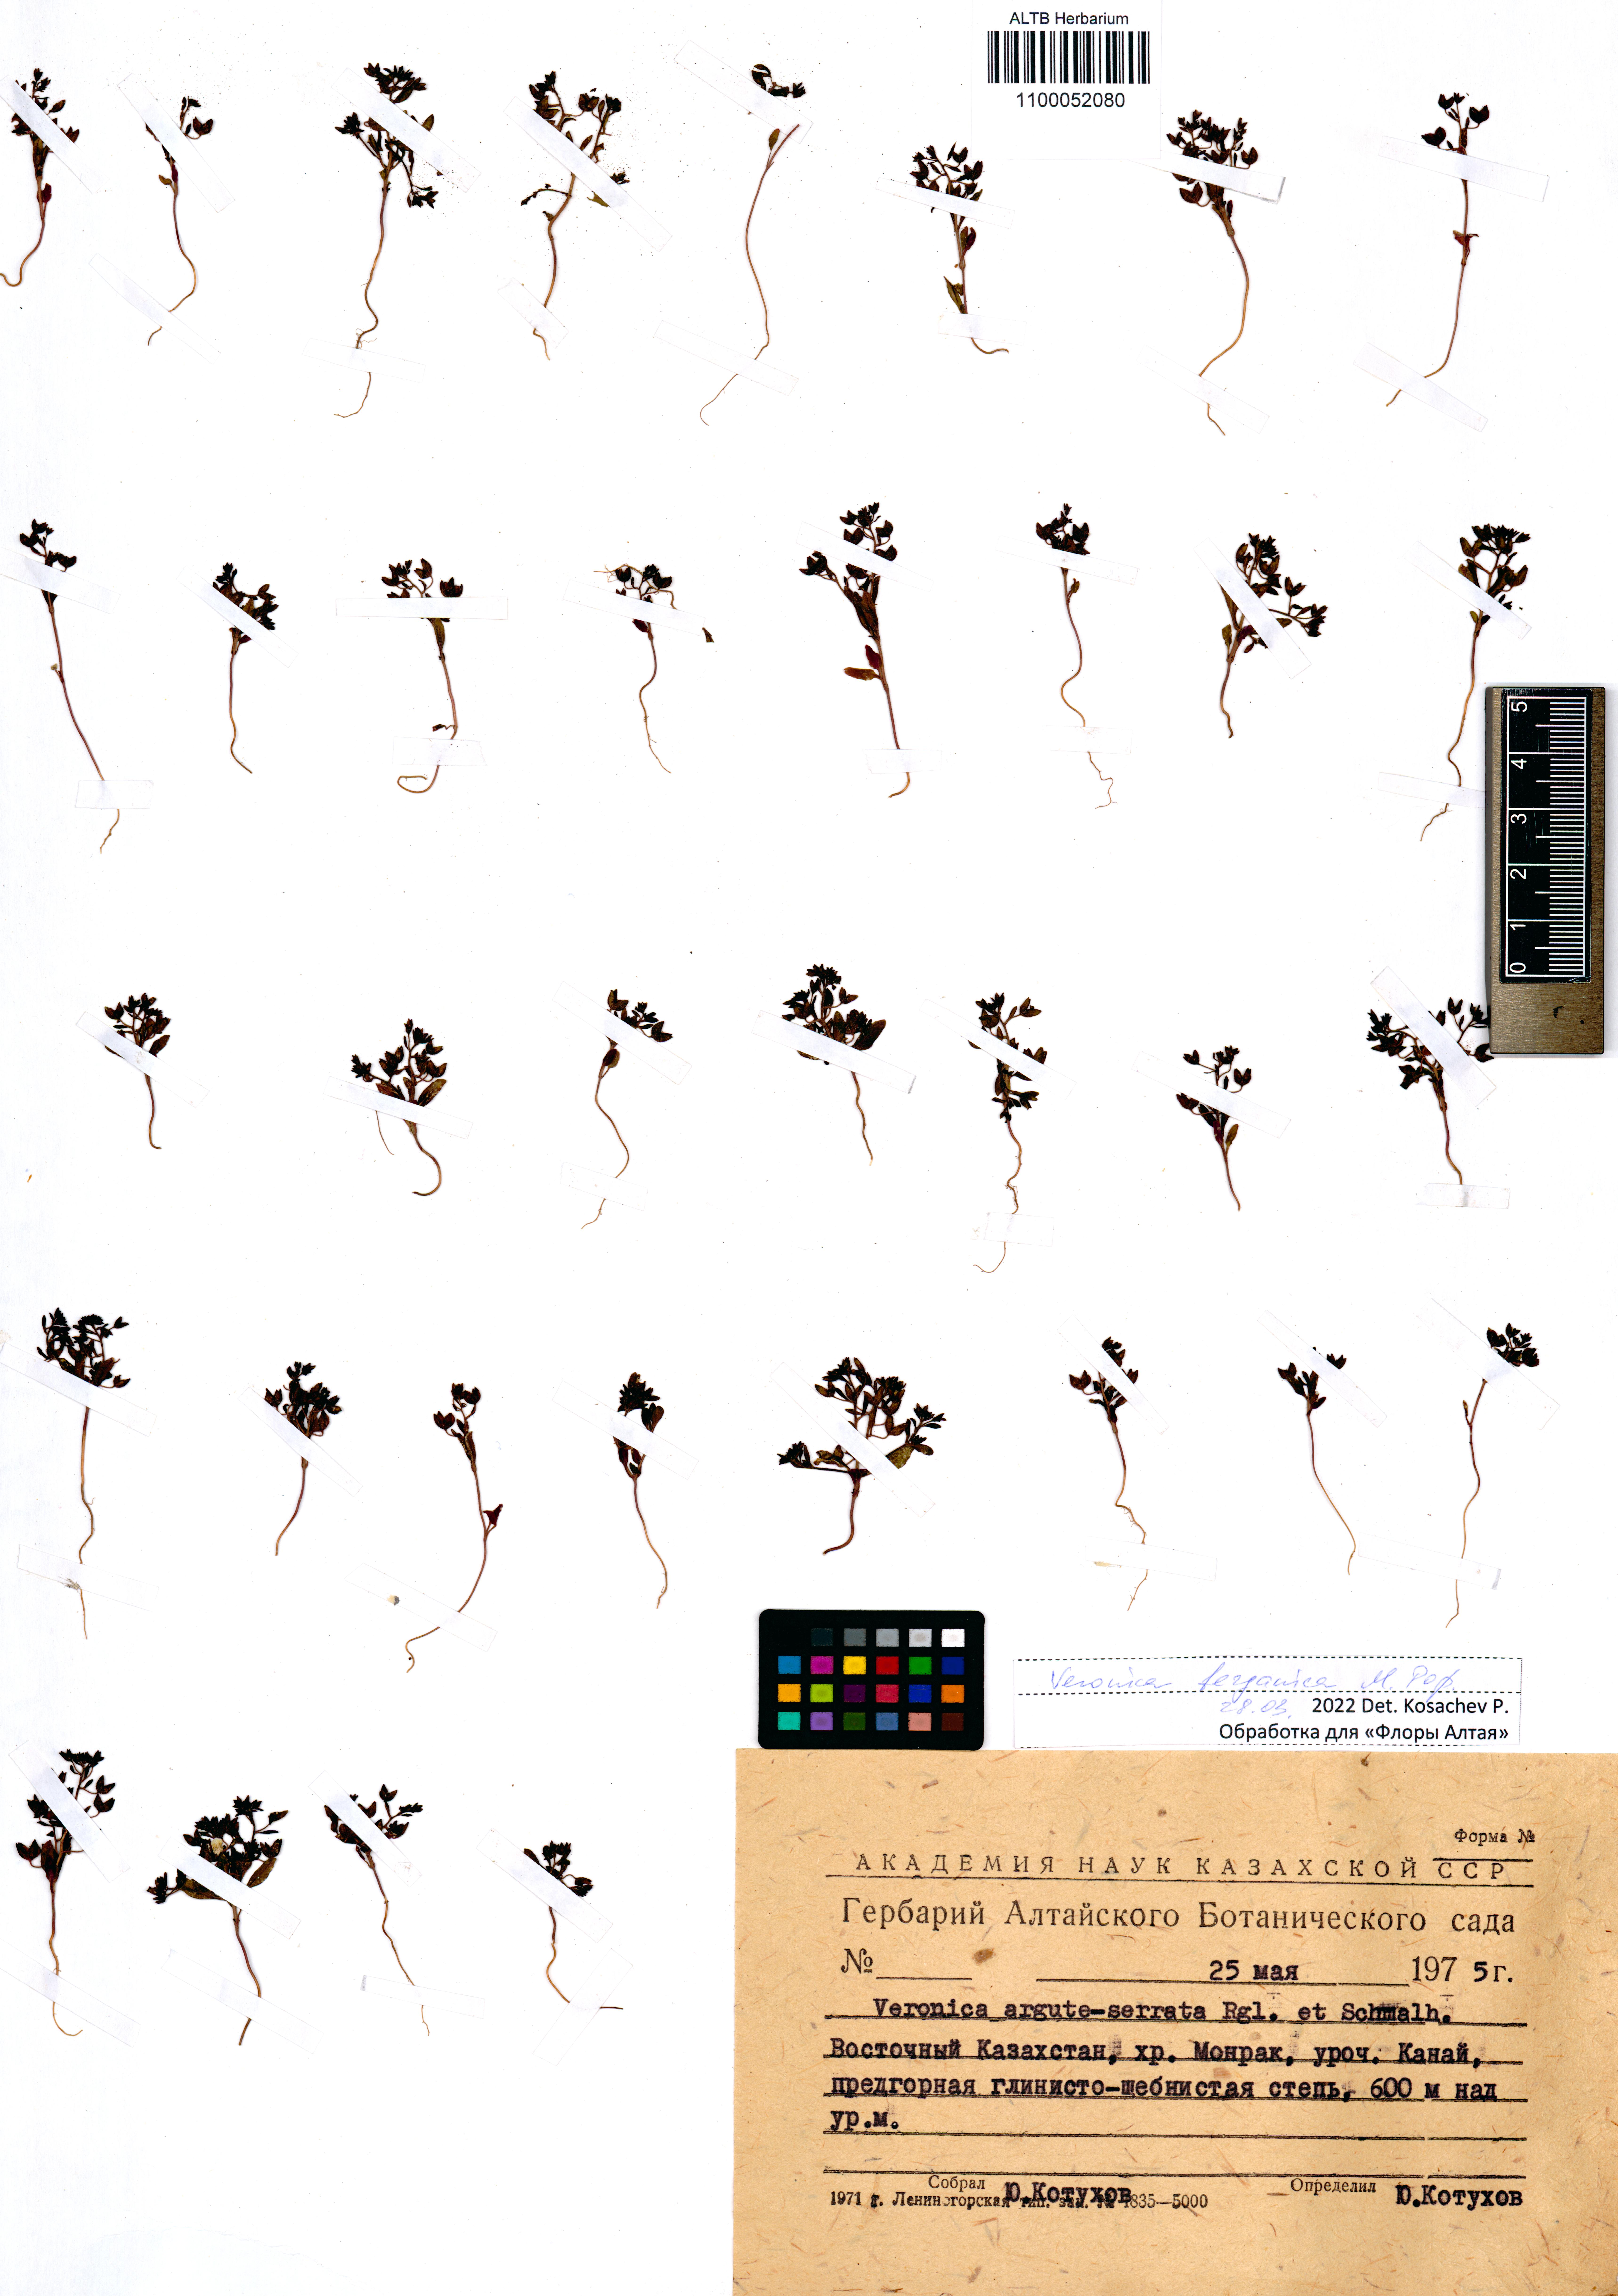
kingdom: Plantae
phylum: Tracheophyta
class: Magnoliopsida
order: Lamiales
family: Plantaginaceae
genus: Veronica
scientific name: Veronica ferganica
